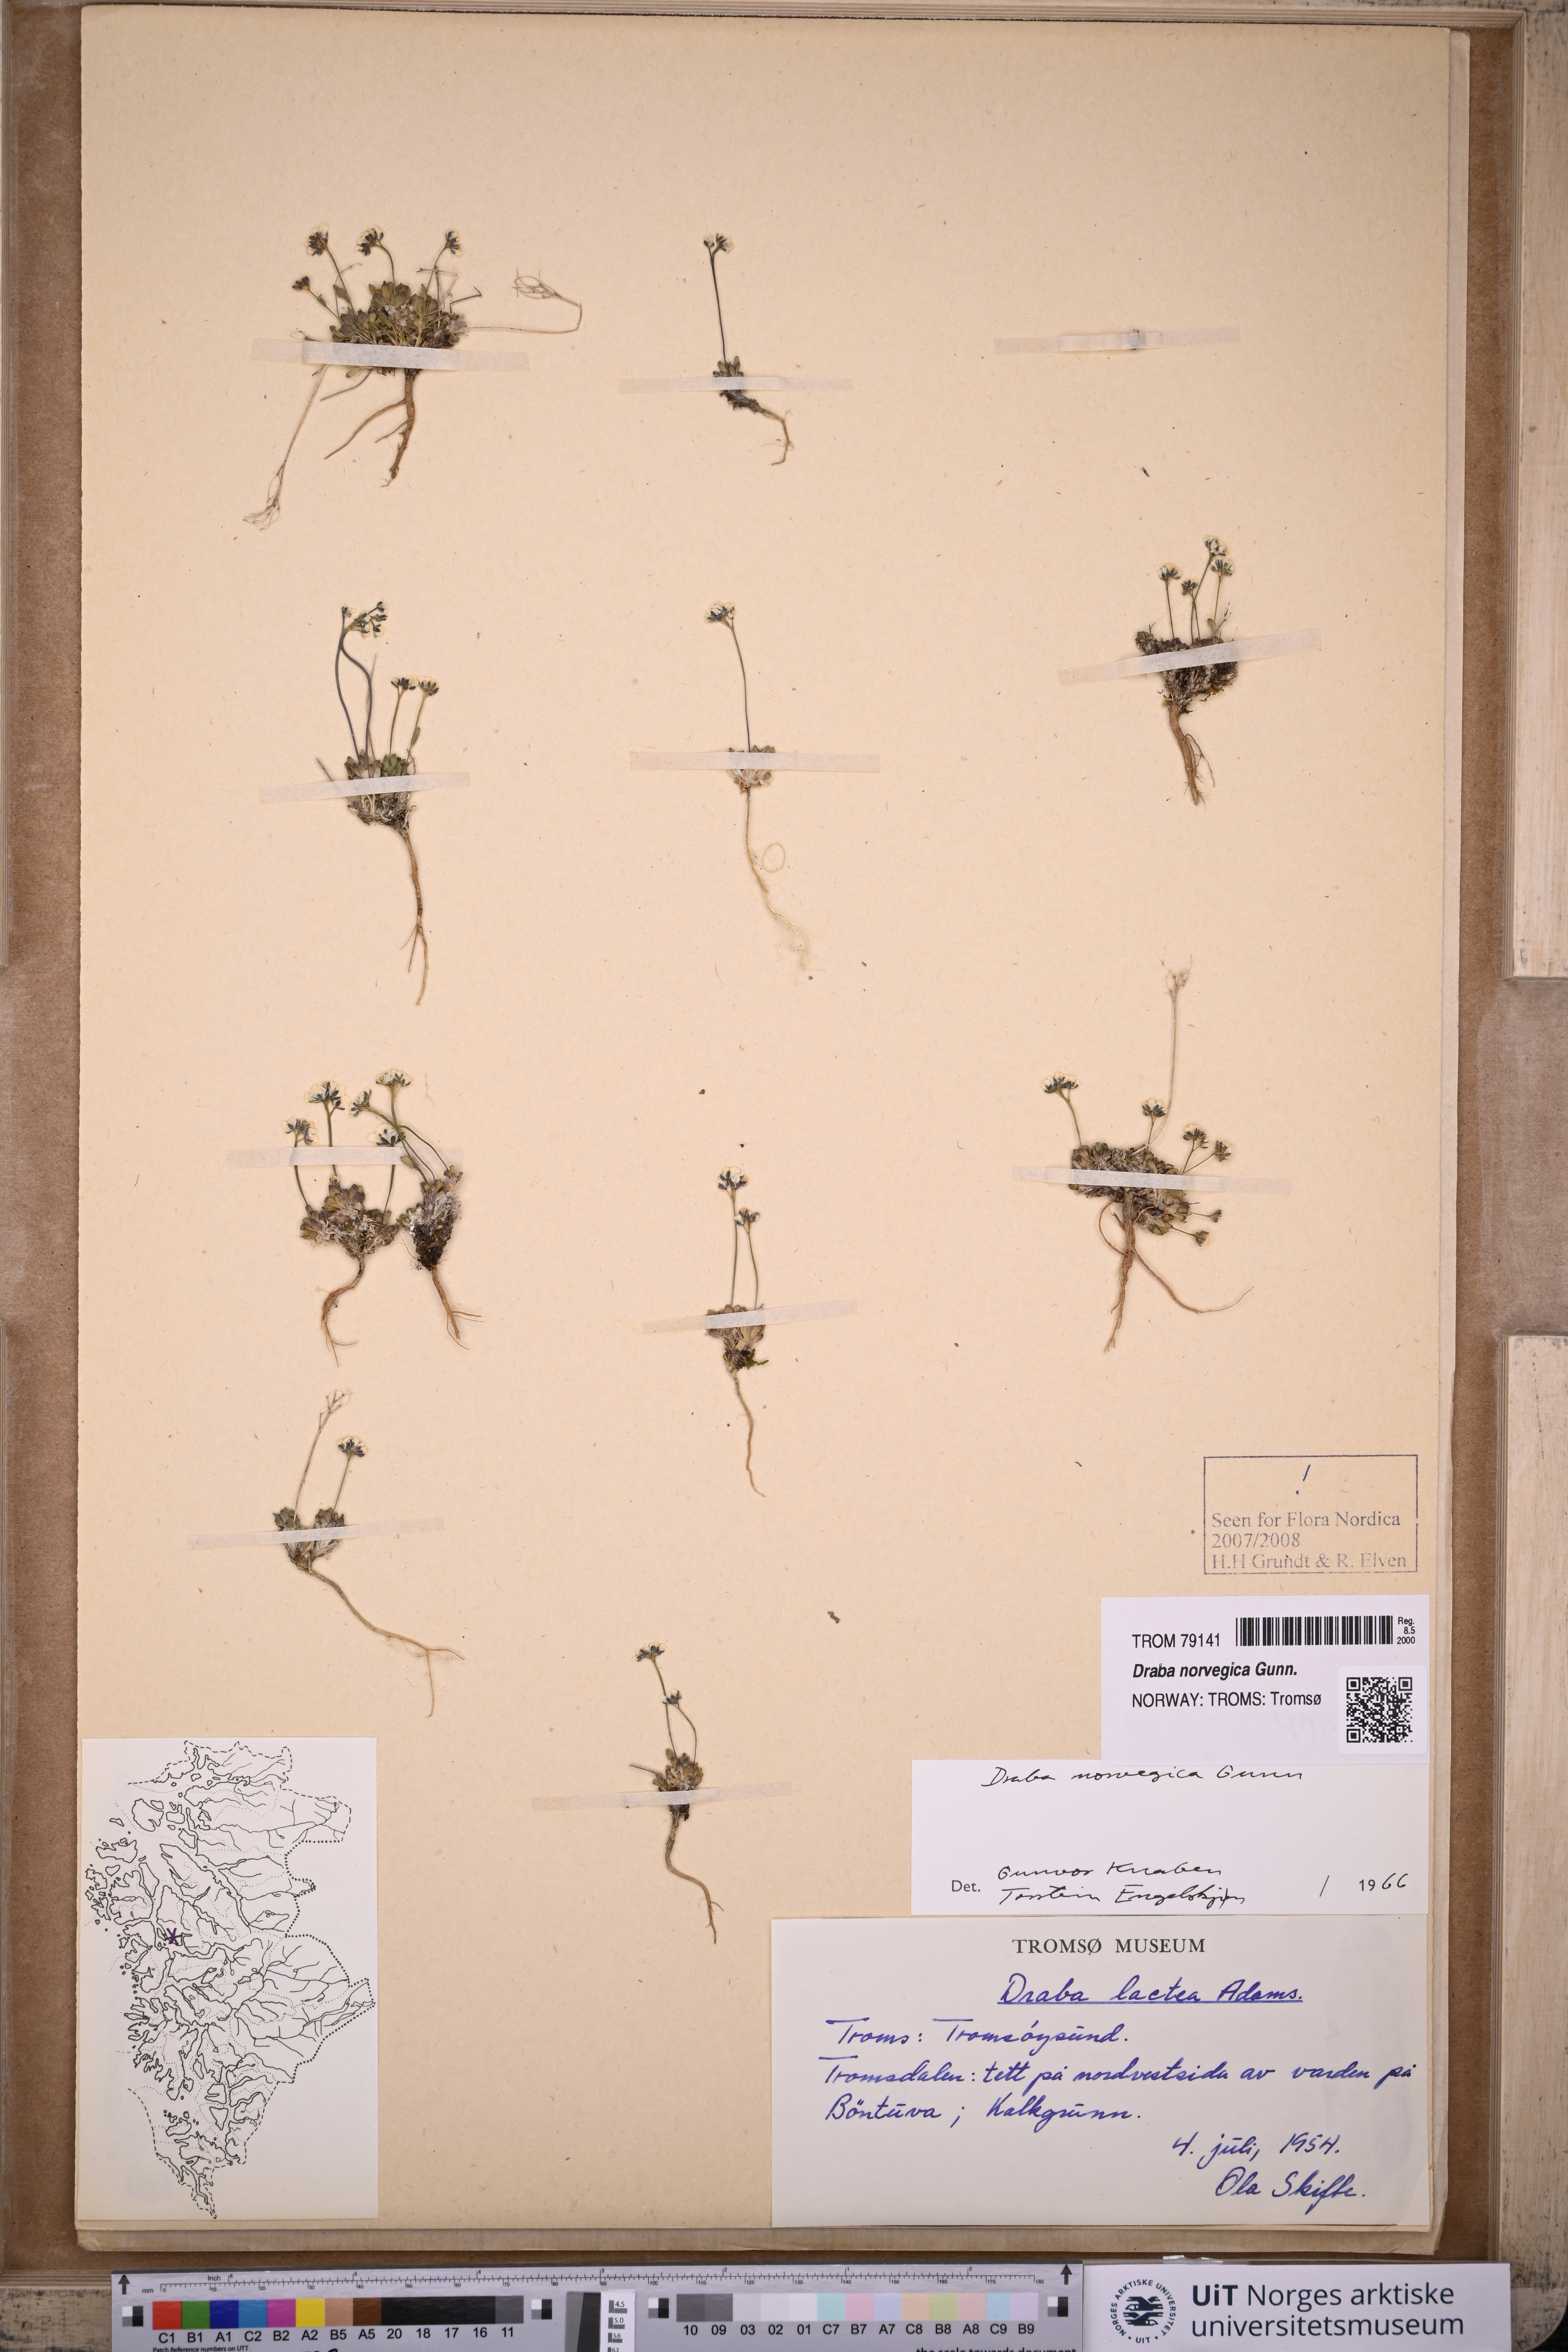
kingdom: Plantae
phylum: Tracheophyta
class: Magnoliopsida
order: Brassicales
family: Brassicaceae
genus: Draba
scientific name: Draba norvegica
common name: Rock whitlowgrass
